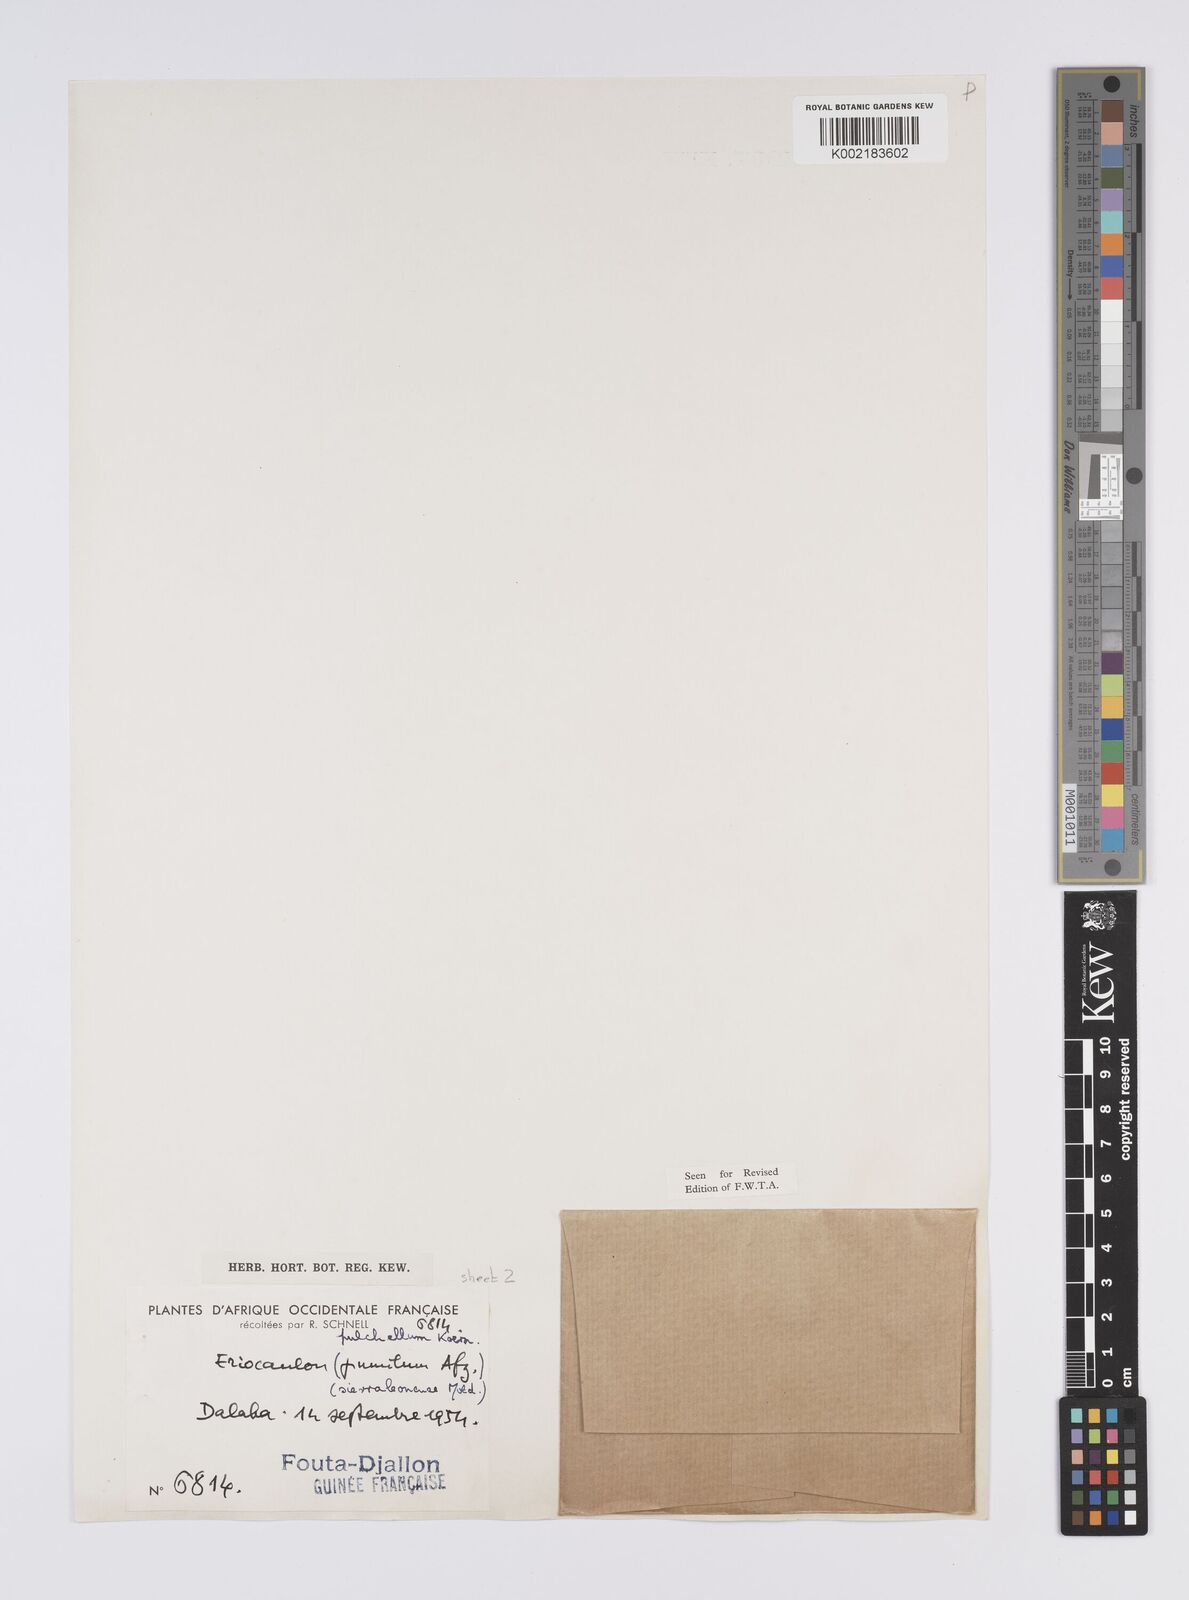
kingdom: Plantae
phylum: Tracheophyta
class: Liliopsida
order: Poales
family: Eriocaulaceae
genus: Eriocaulon
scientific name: Eriocaulon pulchellum
